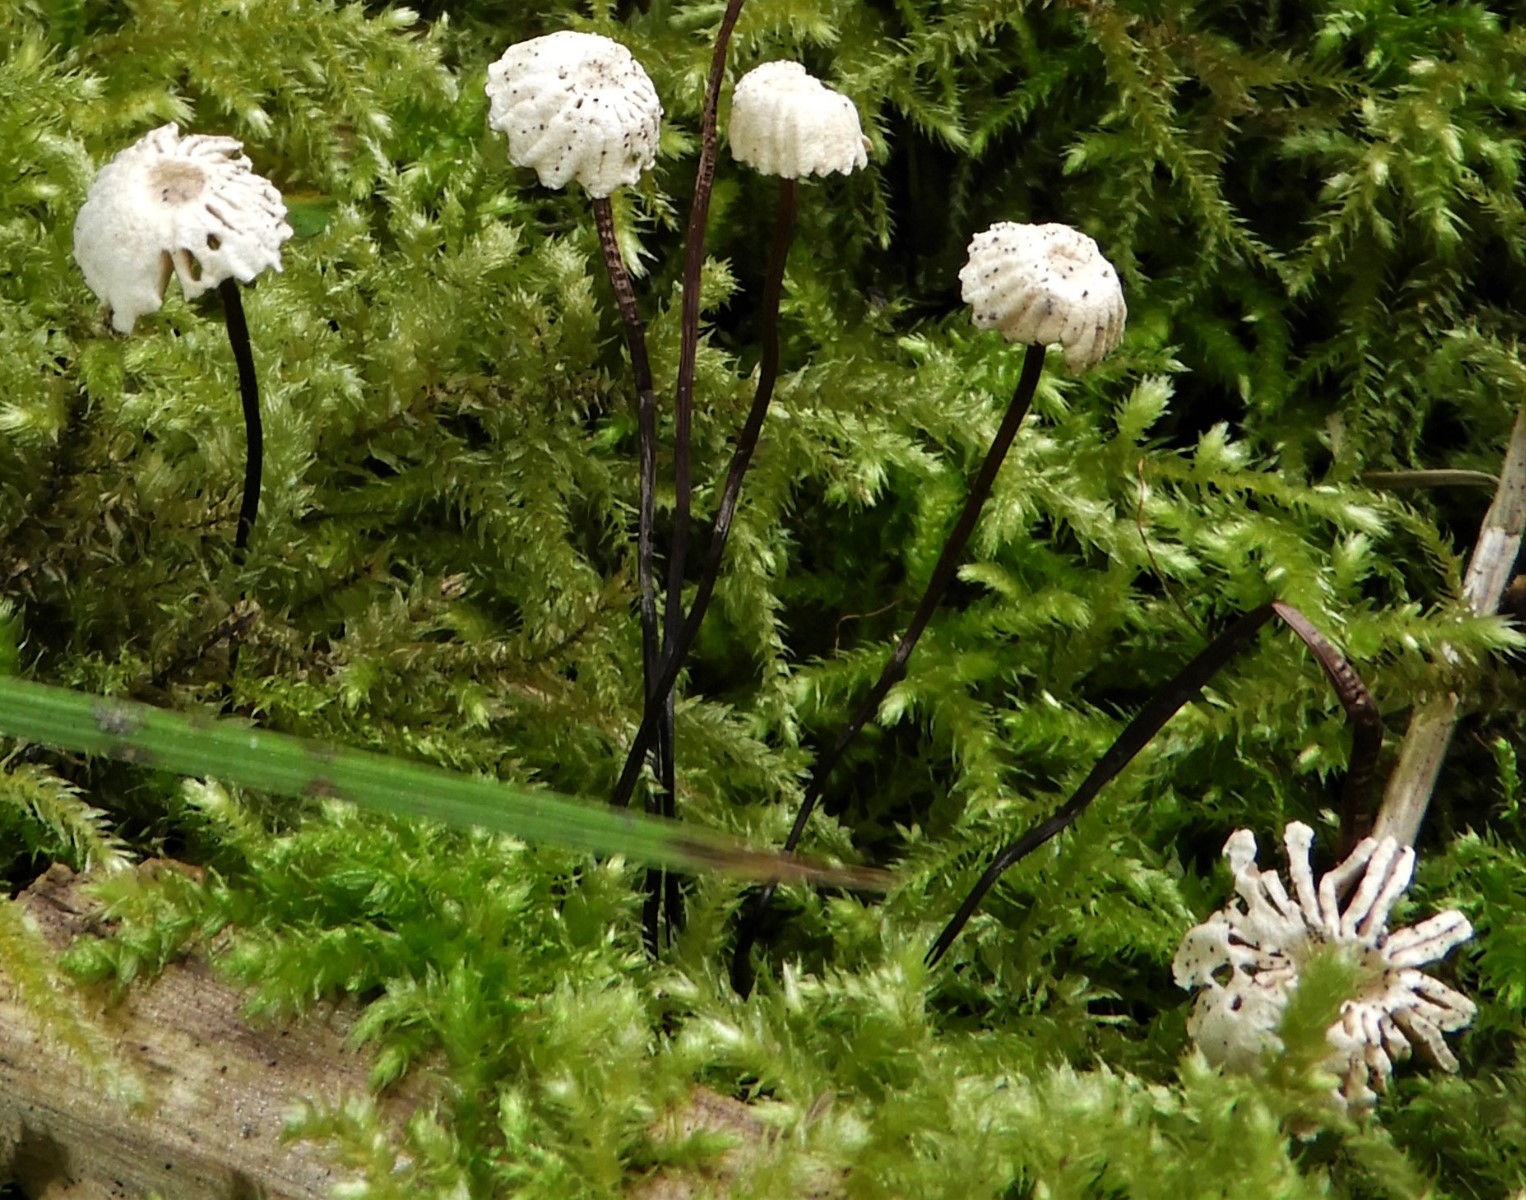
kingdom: Fungi
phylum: Basidiomycota
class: Agaricomycetes
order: Agaricales
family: Marasmiaceae
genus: Marasmius
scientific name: Marasmius rotula
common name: hjul-bruskhat
